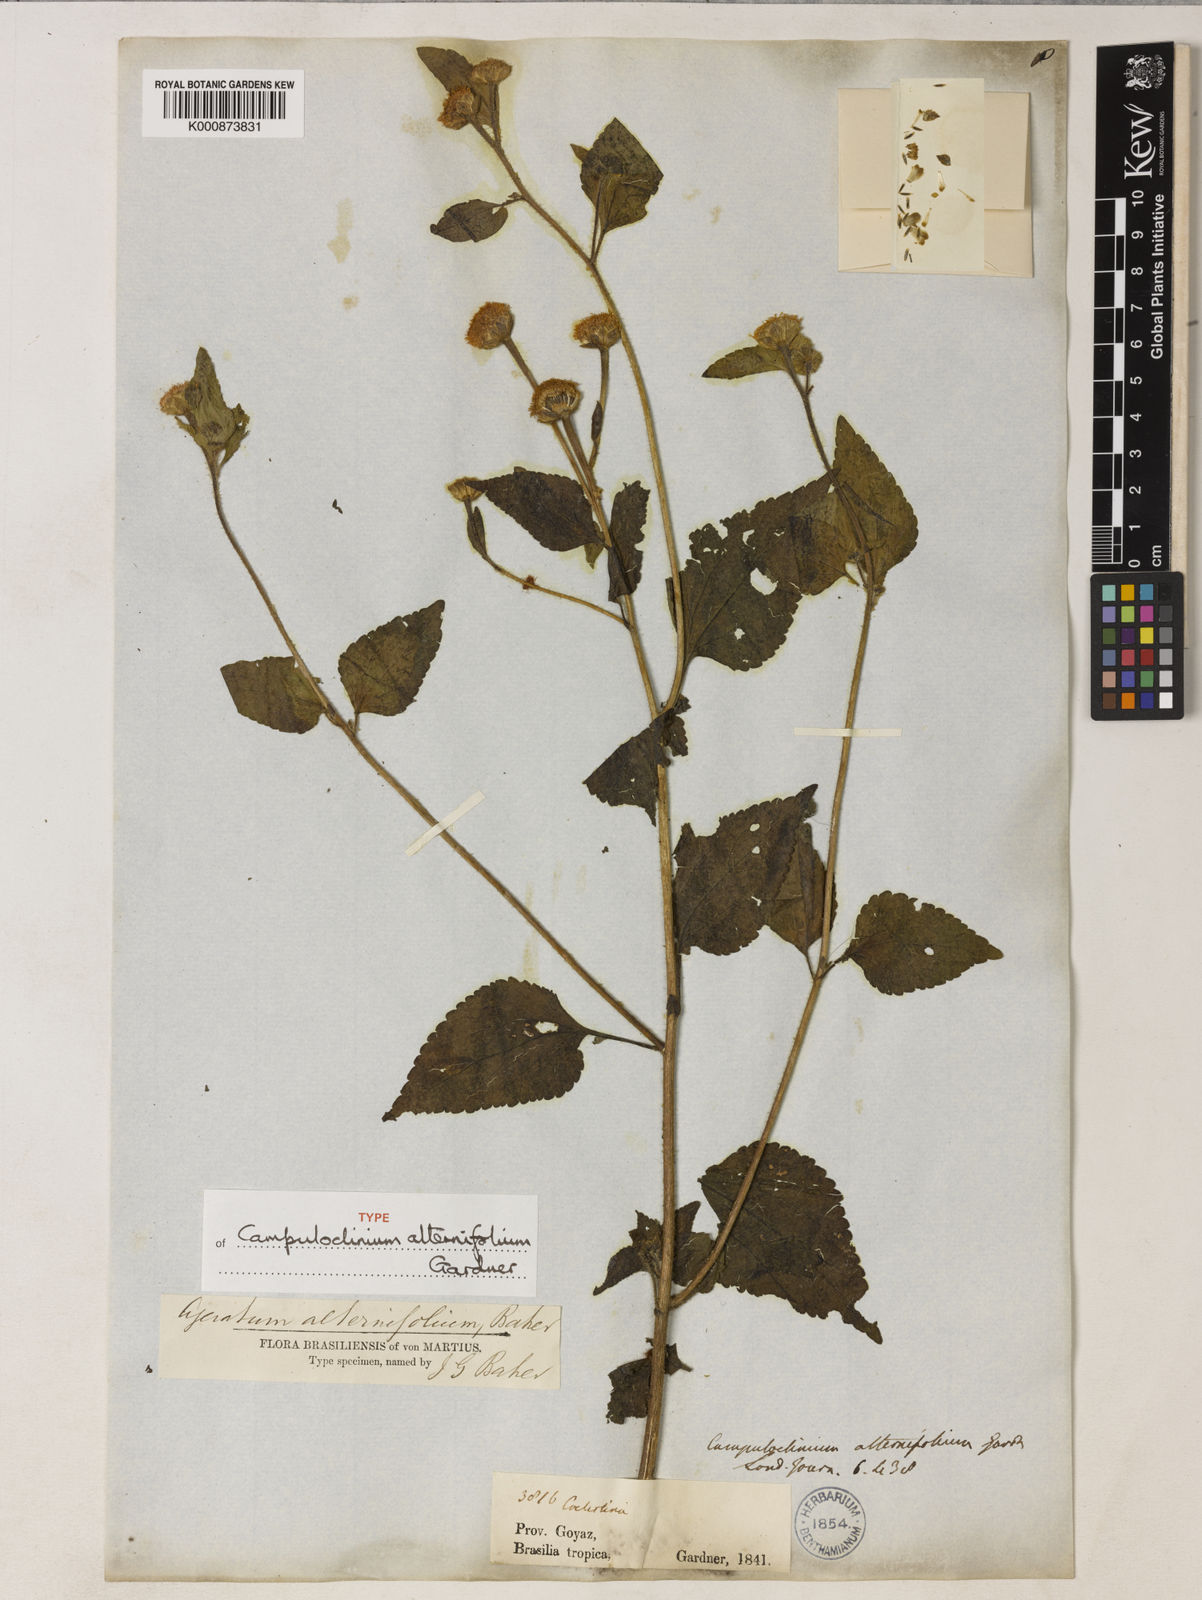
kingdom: Plantae
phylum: Tracheophyta
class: Magnoliopsida
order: Asterales
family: Asteraceae
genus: Campuloclinium
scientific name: Campuloclinium alternifolium
